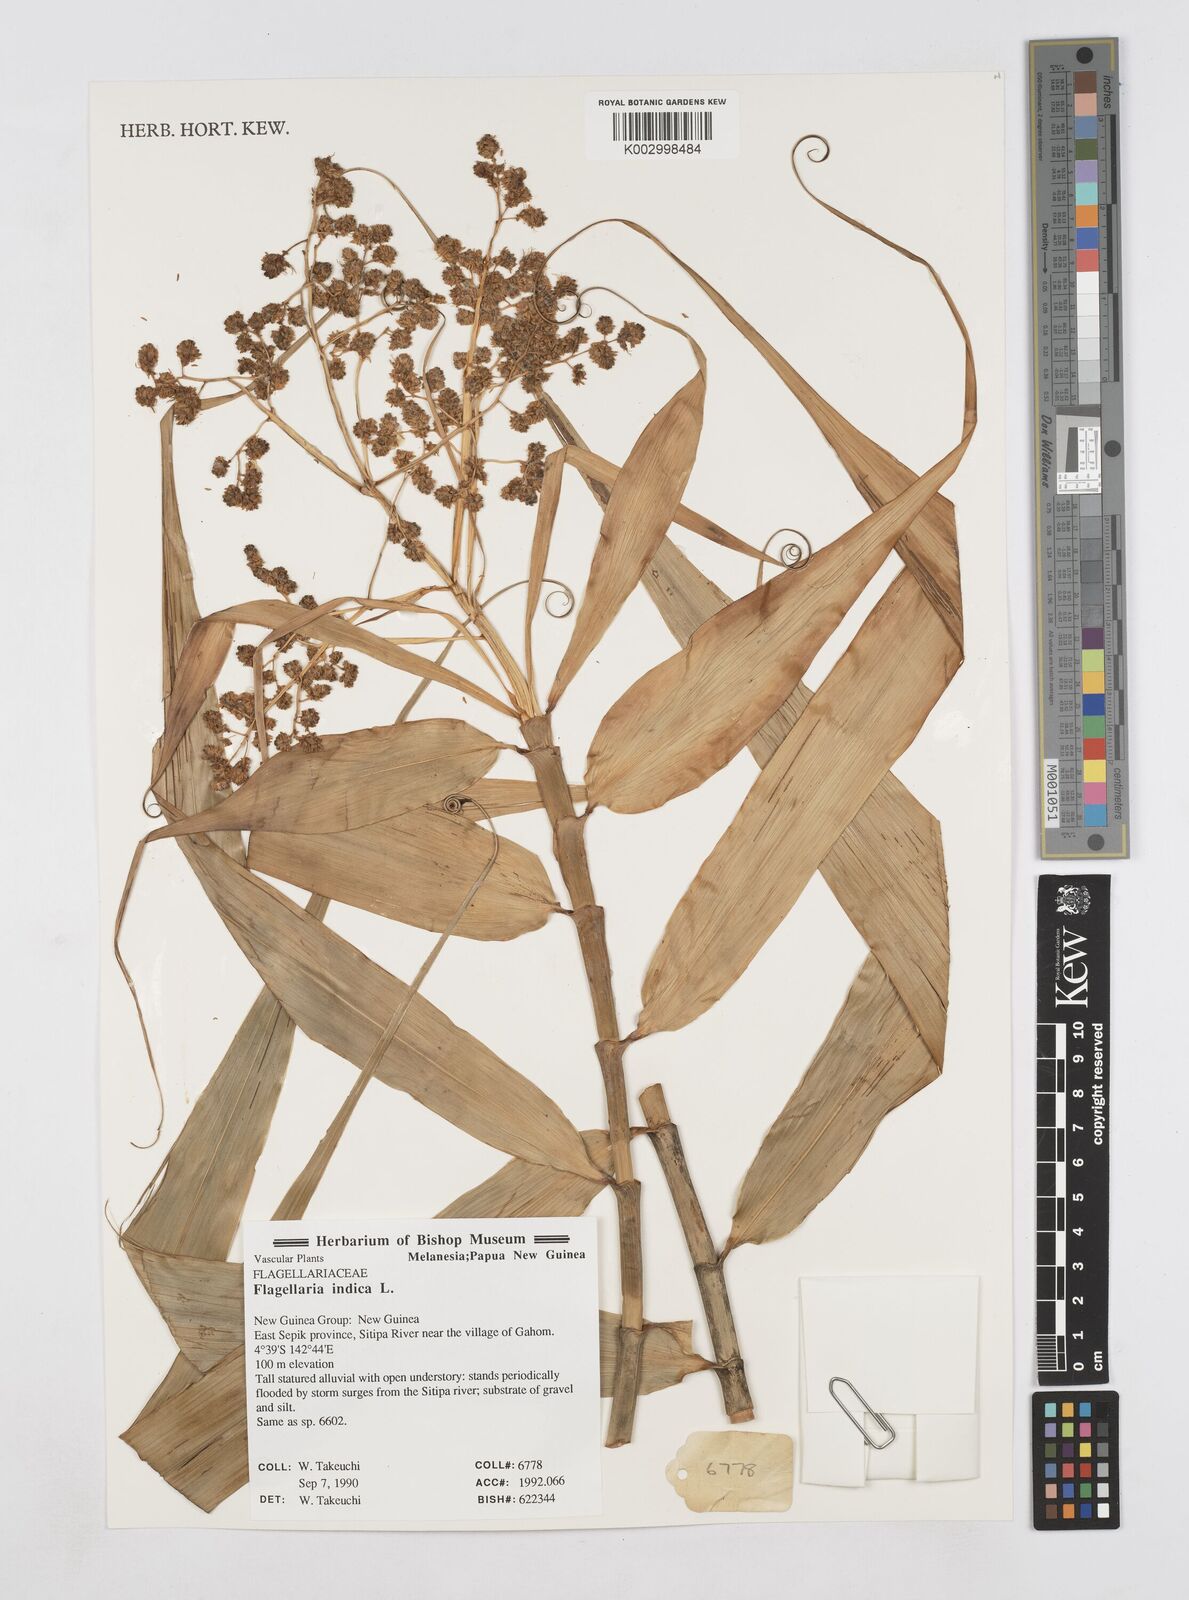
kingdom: Plantae
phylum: Tracheophyta
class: Liliopsida
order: Poales
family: Flagellariaceae
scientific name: Flagellariaceae
